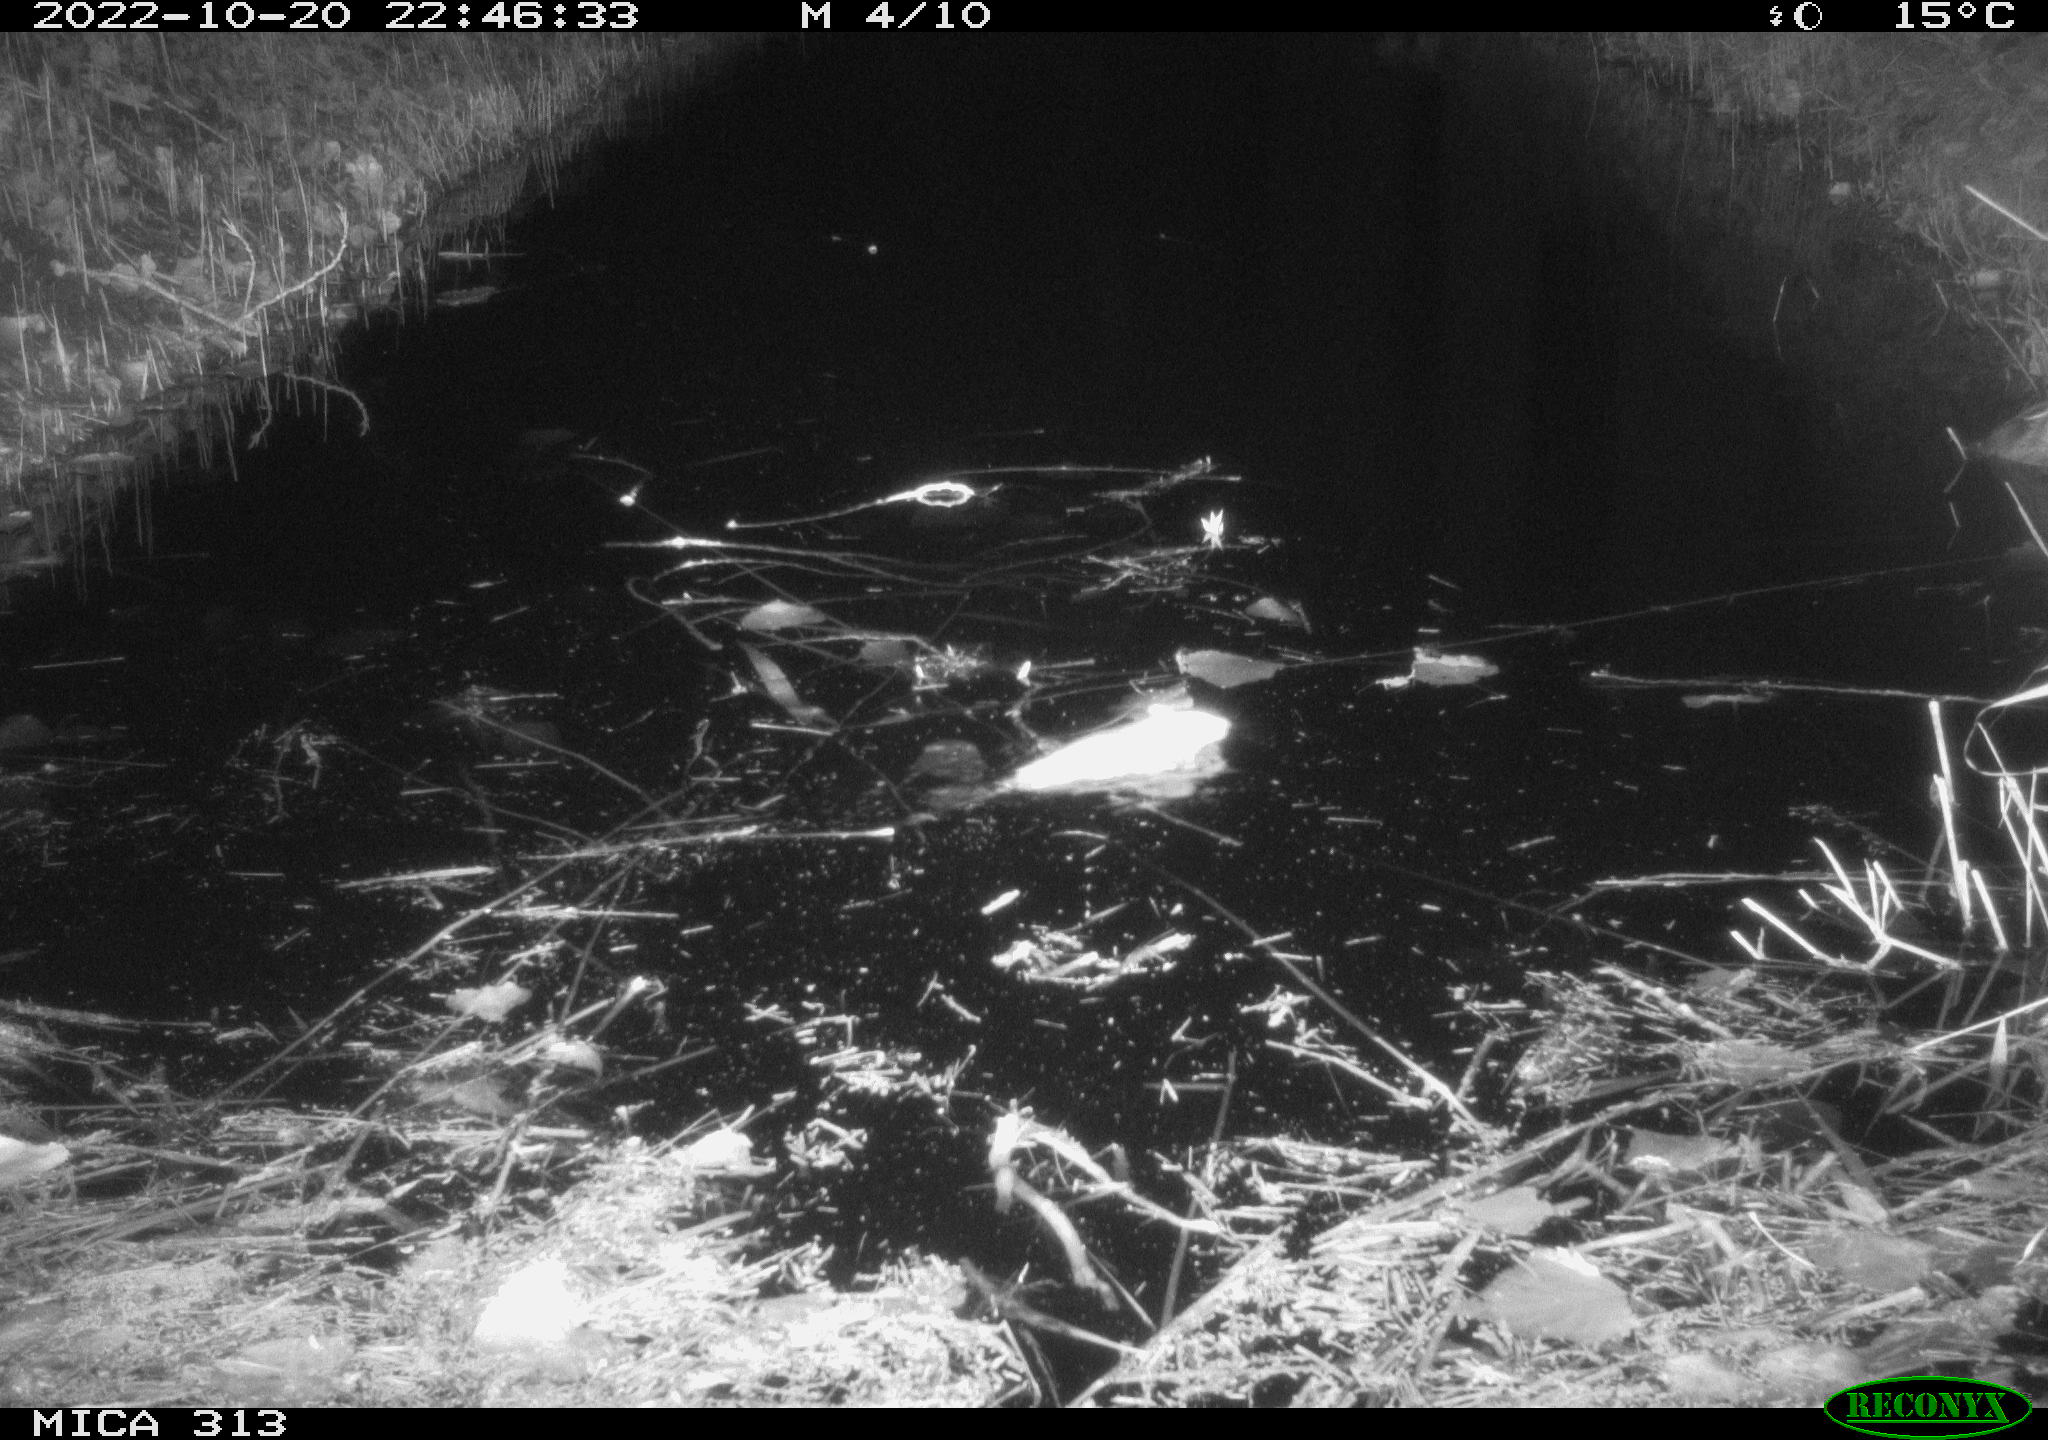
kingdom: Animalia
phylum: Chordata
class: Mammalia
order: Rodentia
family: Muridae
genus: Rattus
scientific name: Rattus norvegicus
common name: Brown rat
